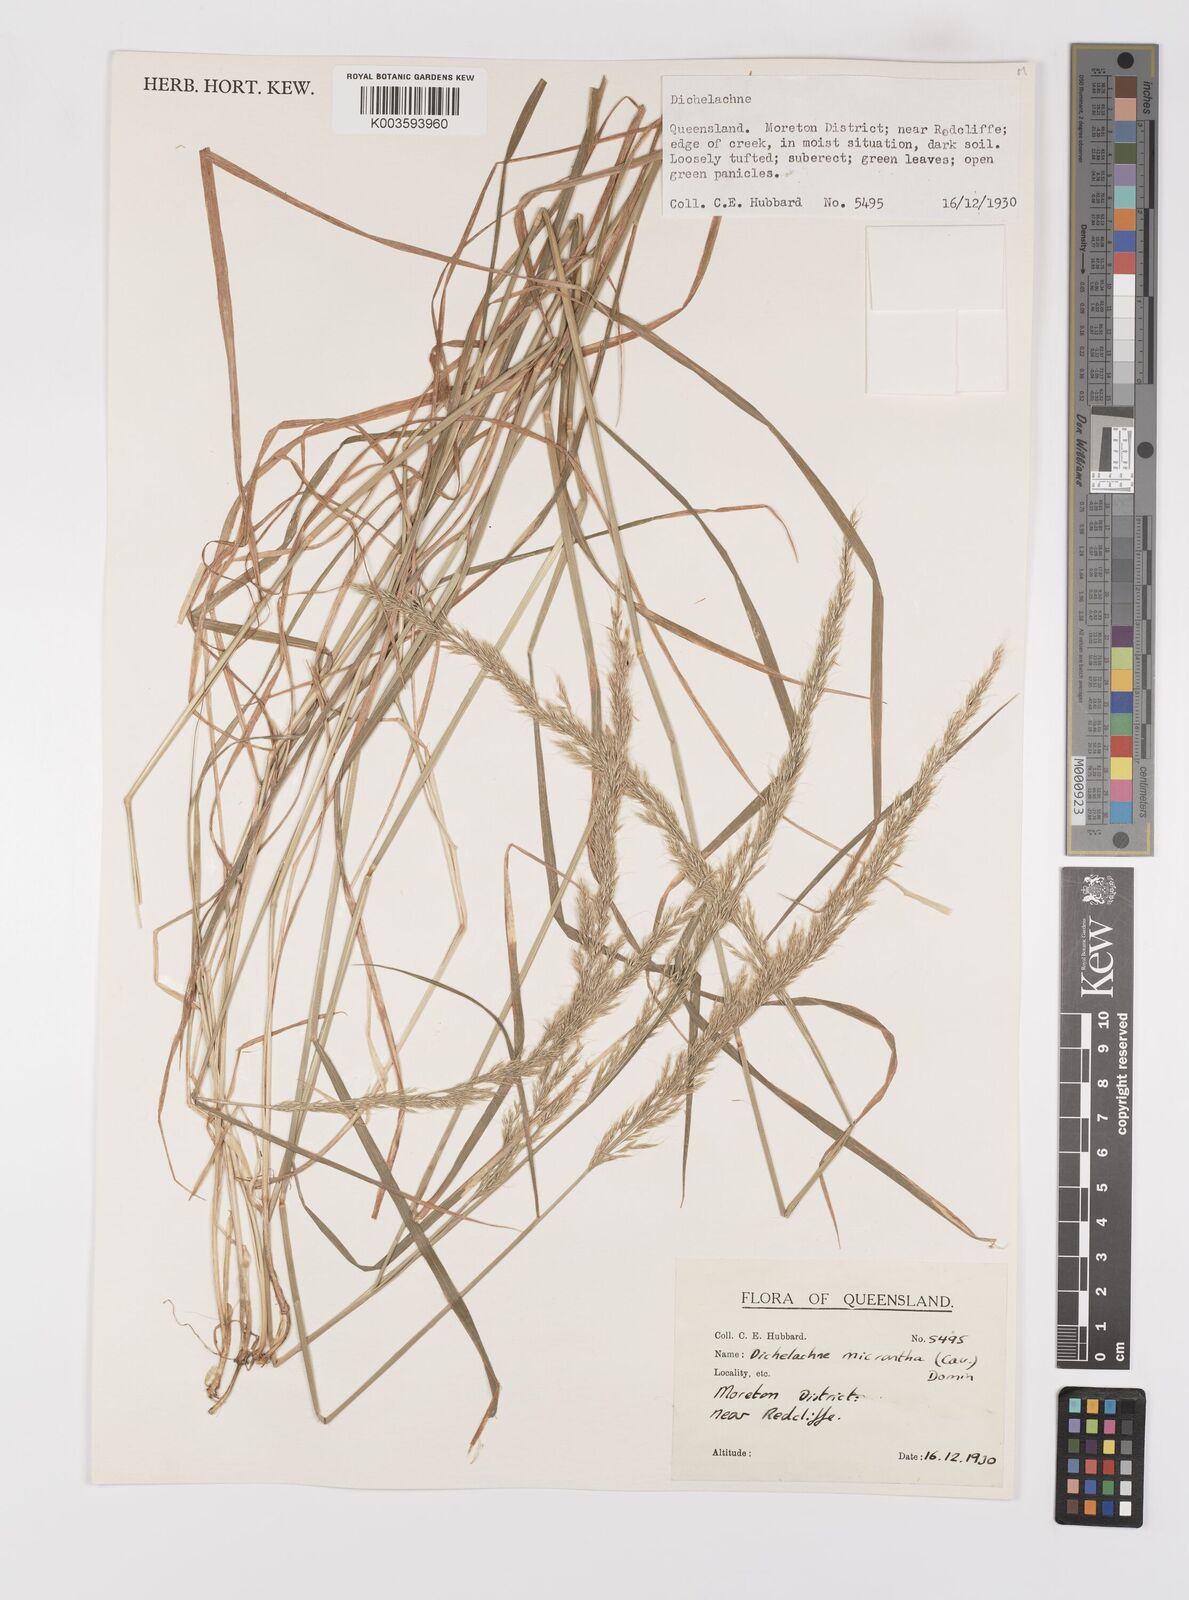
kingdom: Plantae
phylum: Tracheophyta
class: Liliopsida
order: Poales
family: Poaceae
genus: Dichelachne
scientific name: Dichelachne micrantha
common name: Plumegrass
